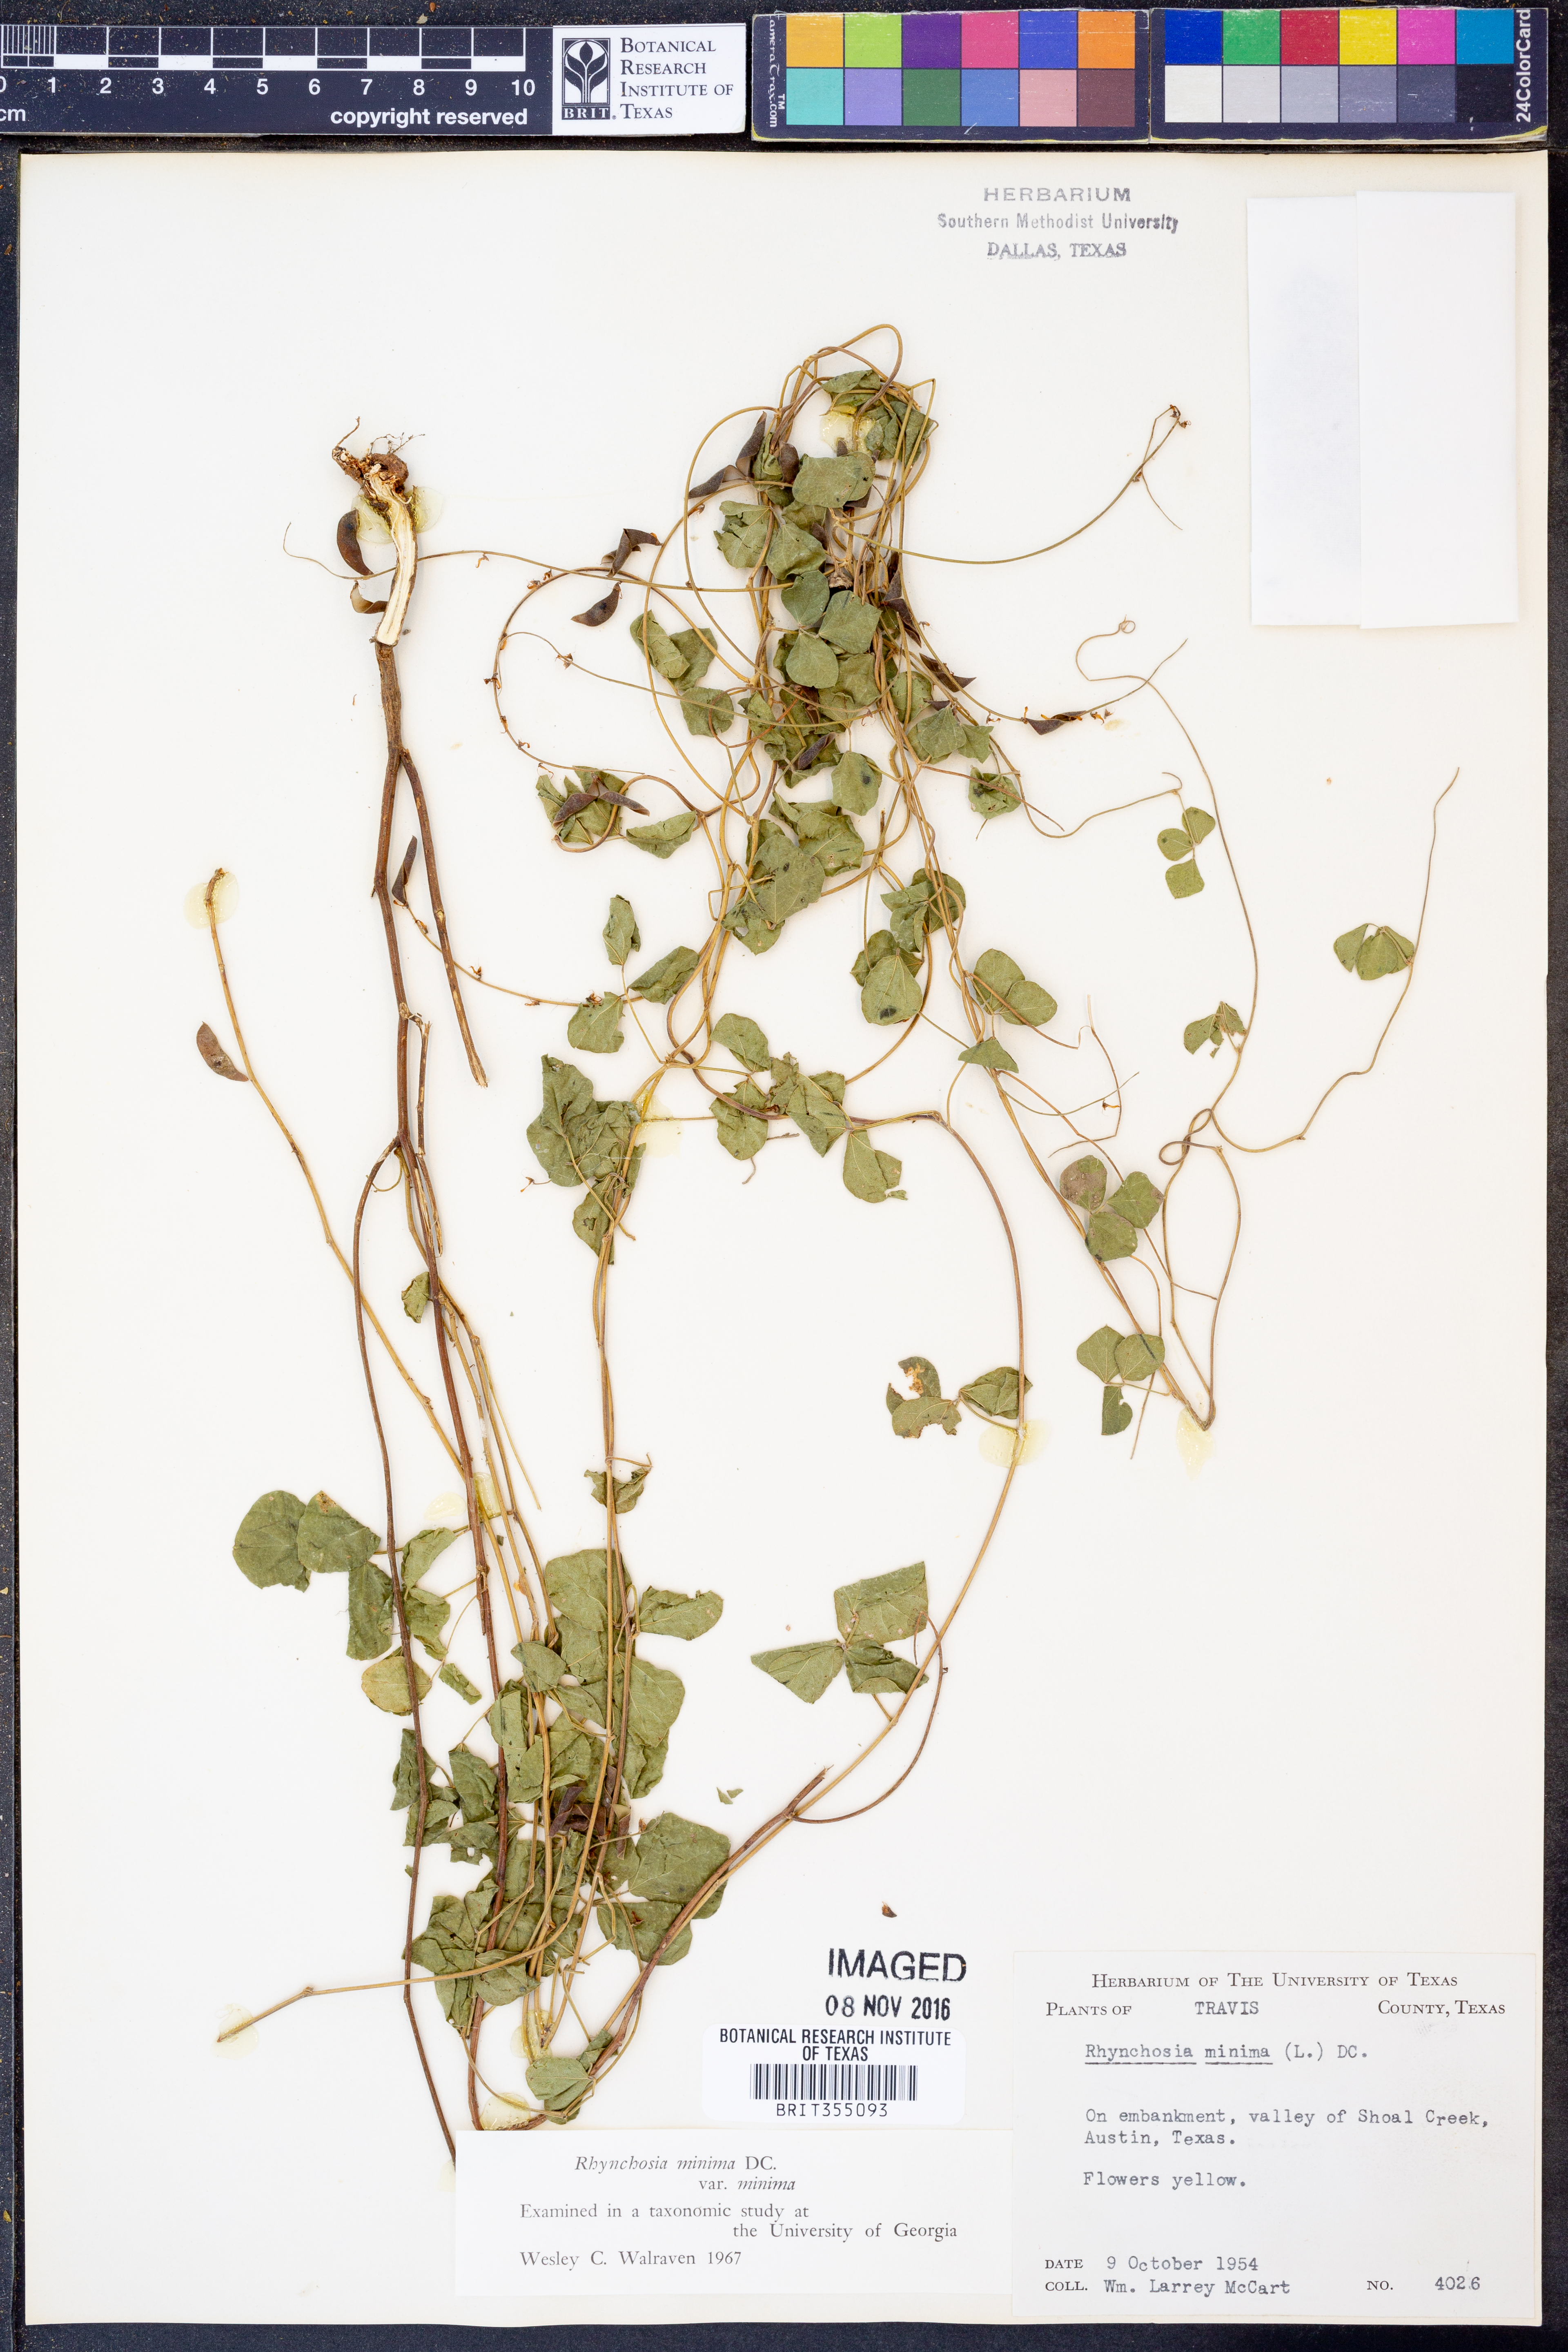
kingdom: Plantae
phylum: Tracheophyta
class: Magnoliopsida
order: Fabales
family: Fabaceae
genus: Rhynchosia
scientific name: Rhynchosia minima
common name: Least snoutbean
